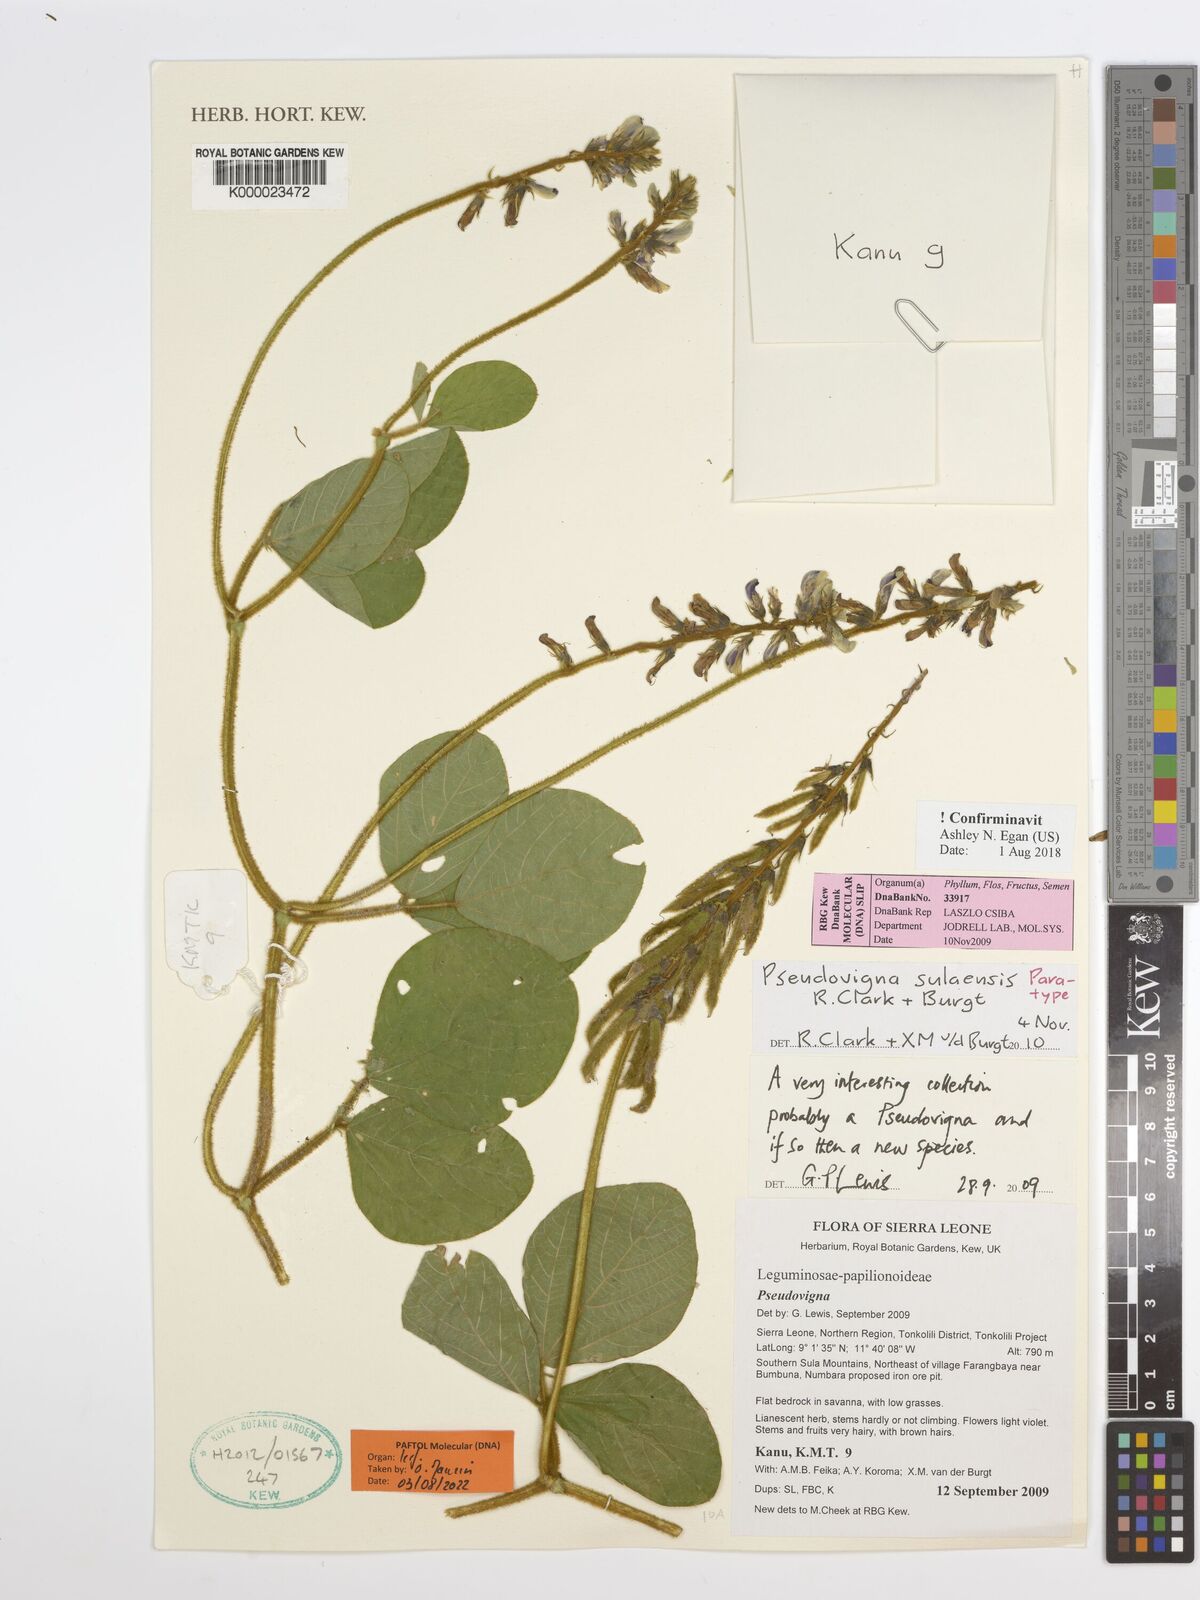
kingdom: Plantae
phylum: Tracheophyta
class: Magnoliopsida
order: Fabales
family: Fabaceae
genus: Calopogonium
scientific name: Calopogonium
